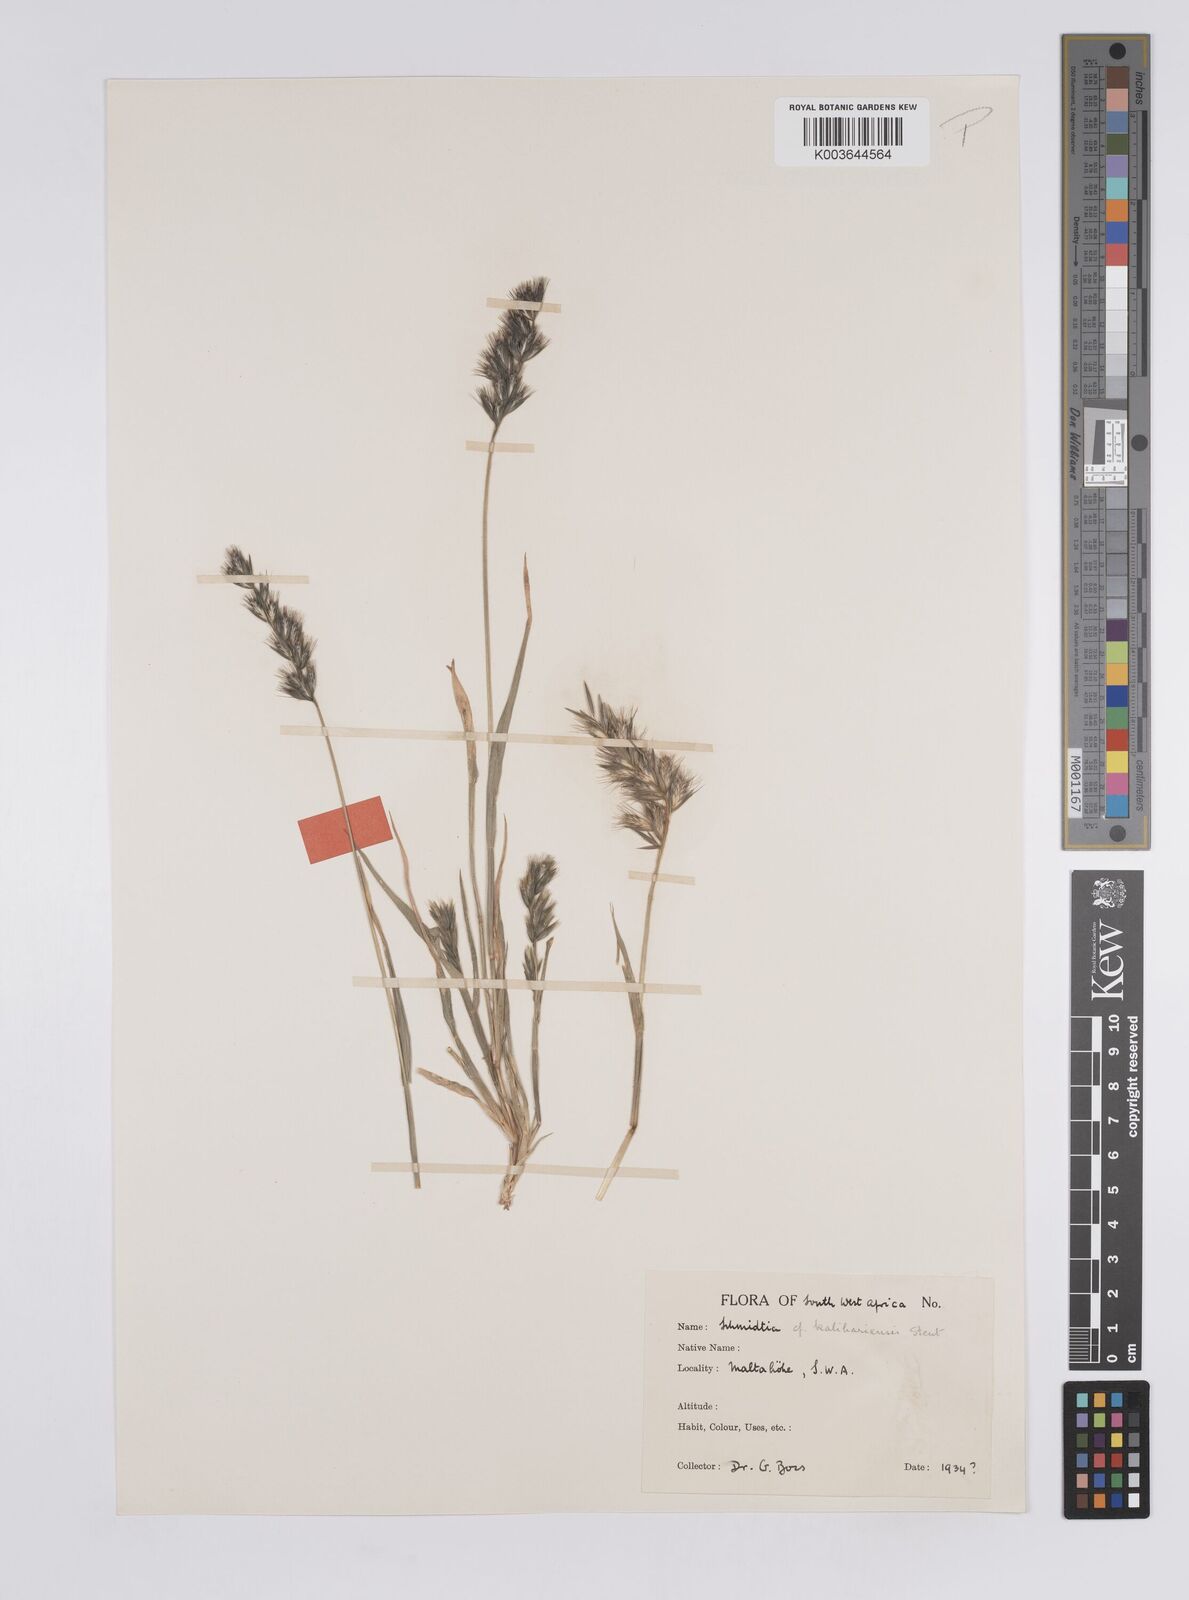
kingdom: Plantae
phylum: Tracheophyta
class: Liliopsida
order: Poales
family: Poaceae
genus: Schmidtia
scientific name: Schmidtia kalahariensis
